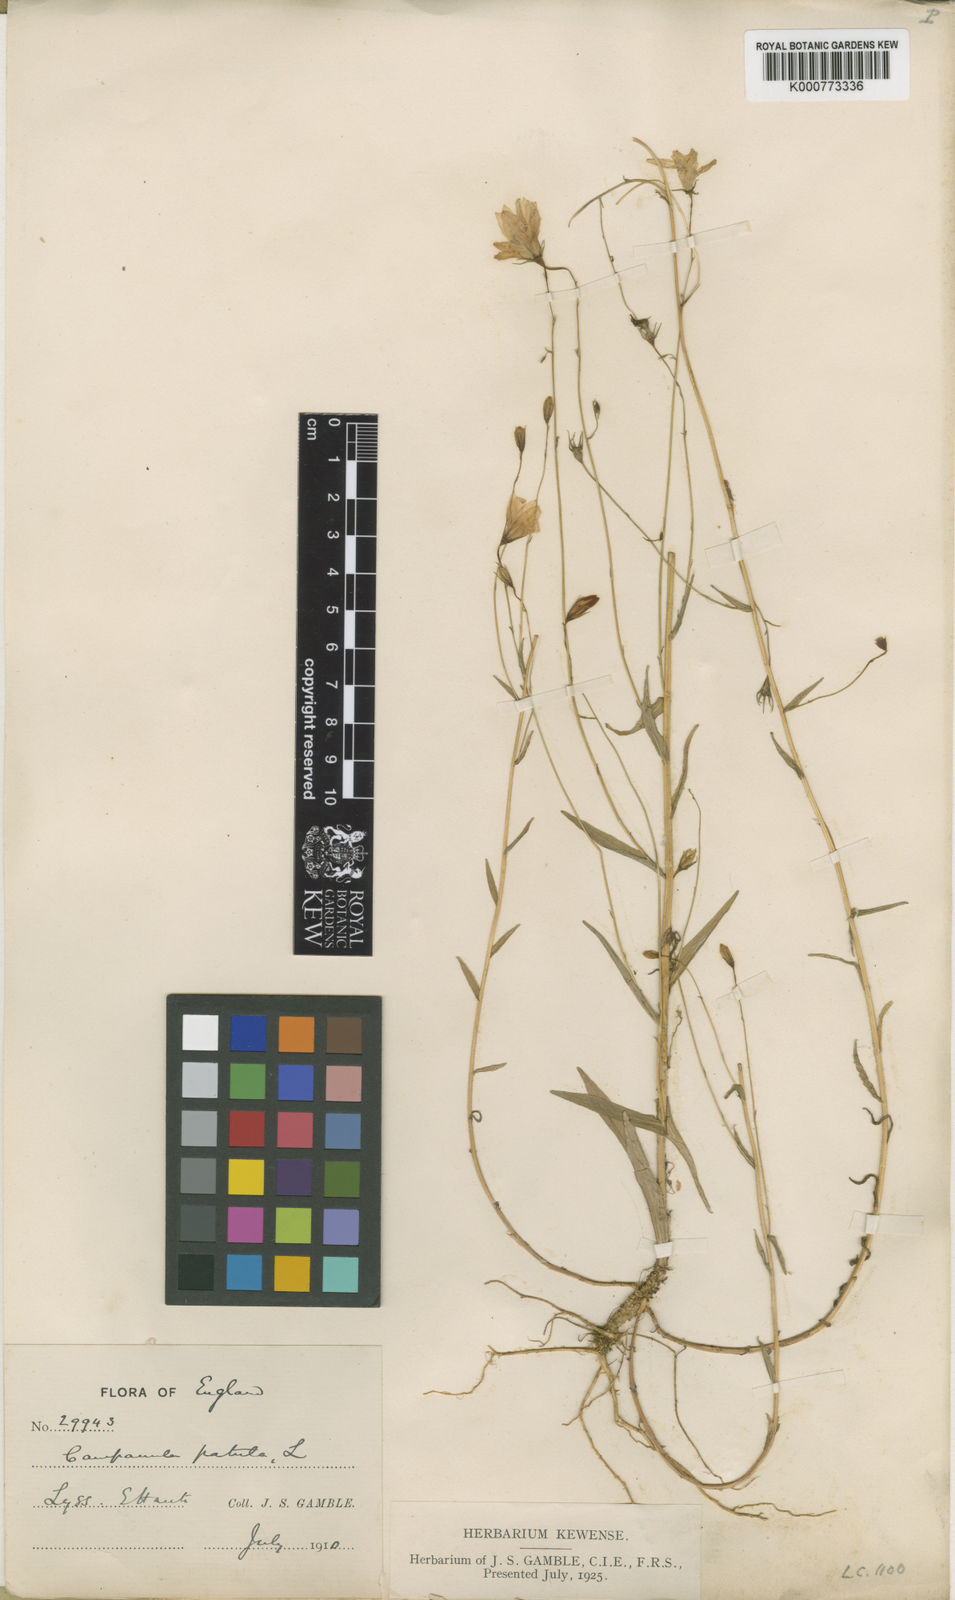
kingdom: Plantae
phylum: Tracheophyta
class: Magnoliopsida
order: Asterales
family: Campanulaceae
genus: Campanula
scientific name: Campanula patula
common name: Spreading bellflower
